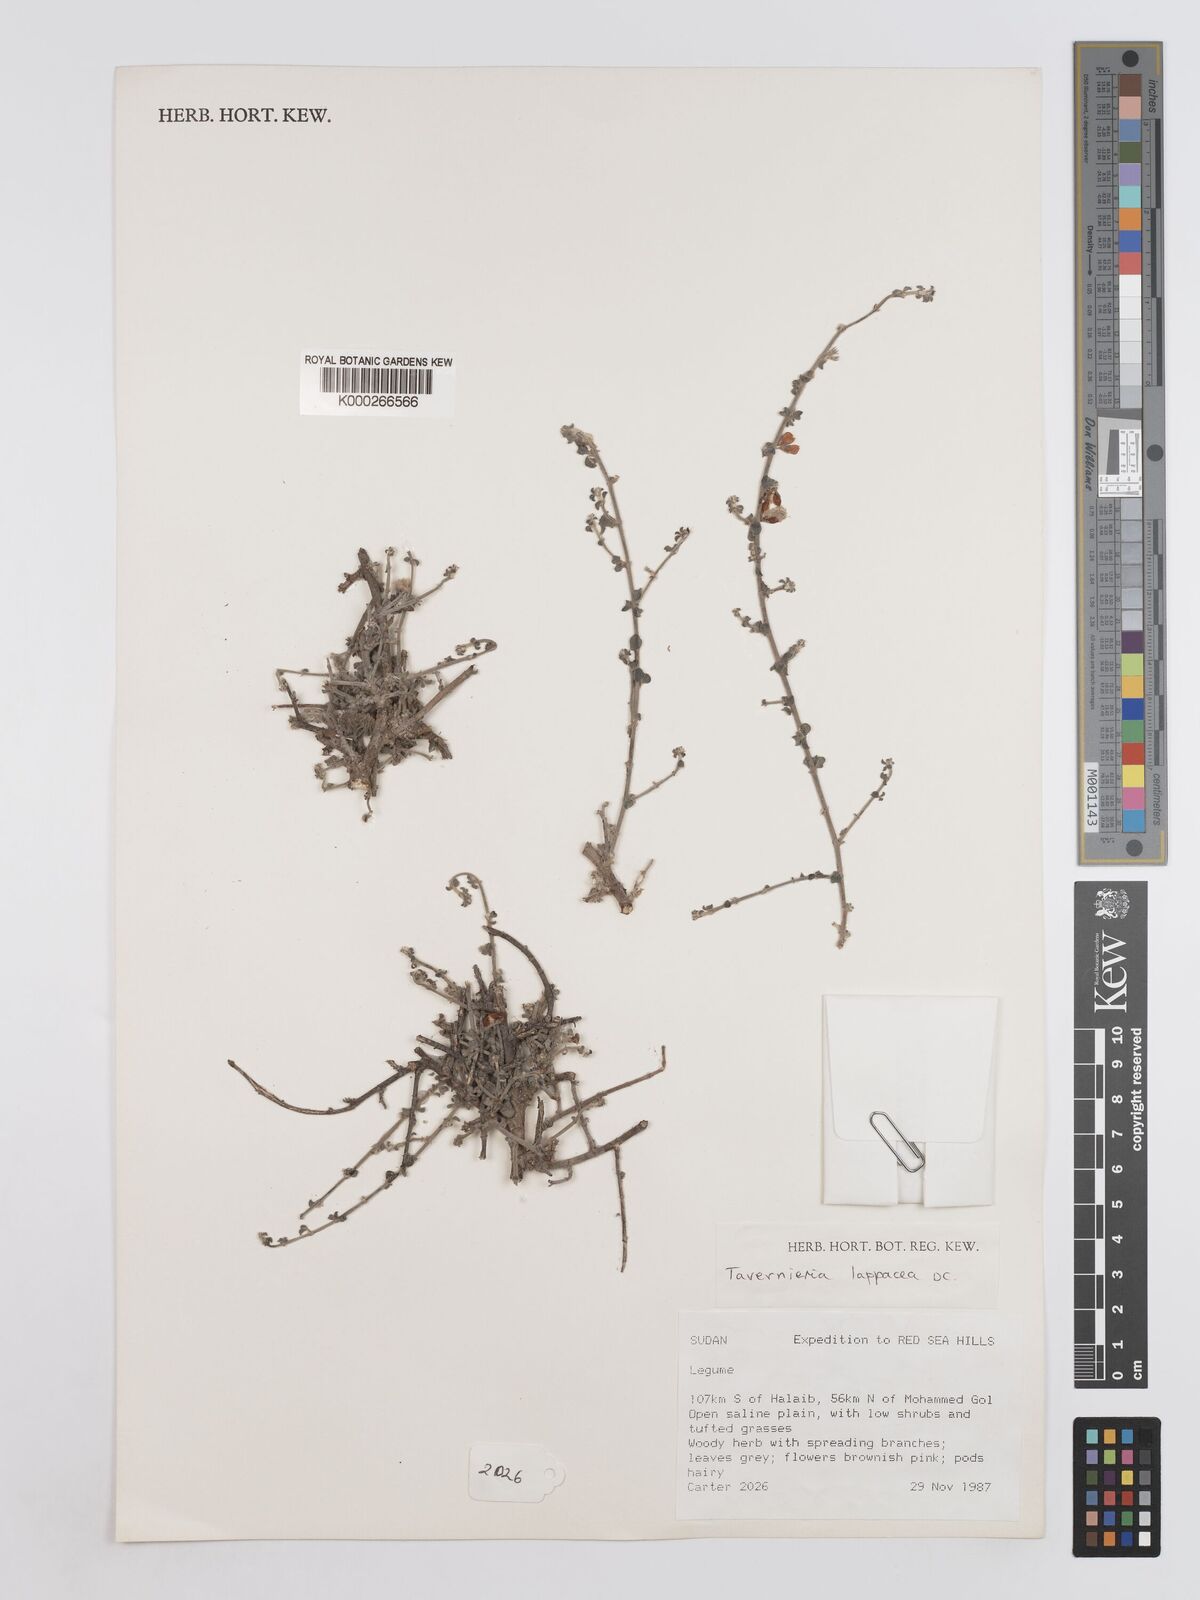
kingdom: Plantae
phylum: Tracheophyta
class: Magnoliopsida
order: Fabales
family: Fabaceae
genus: Taverniera
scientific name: Taverniera lappacea
